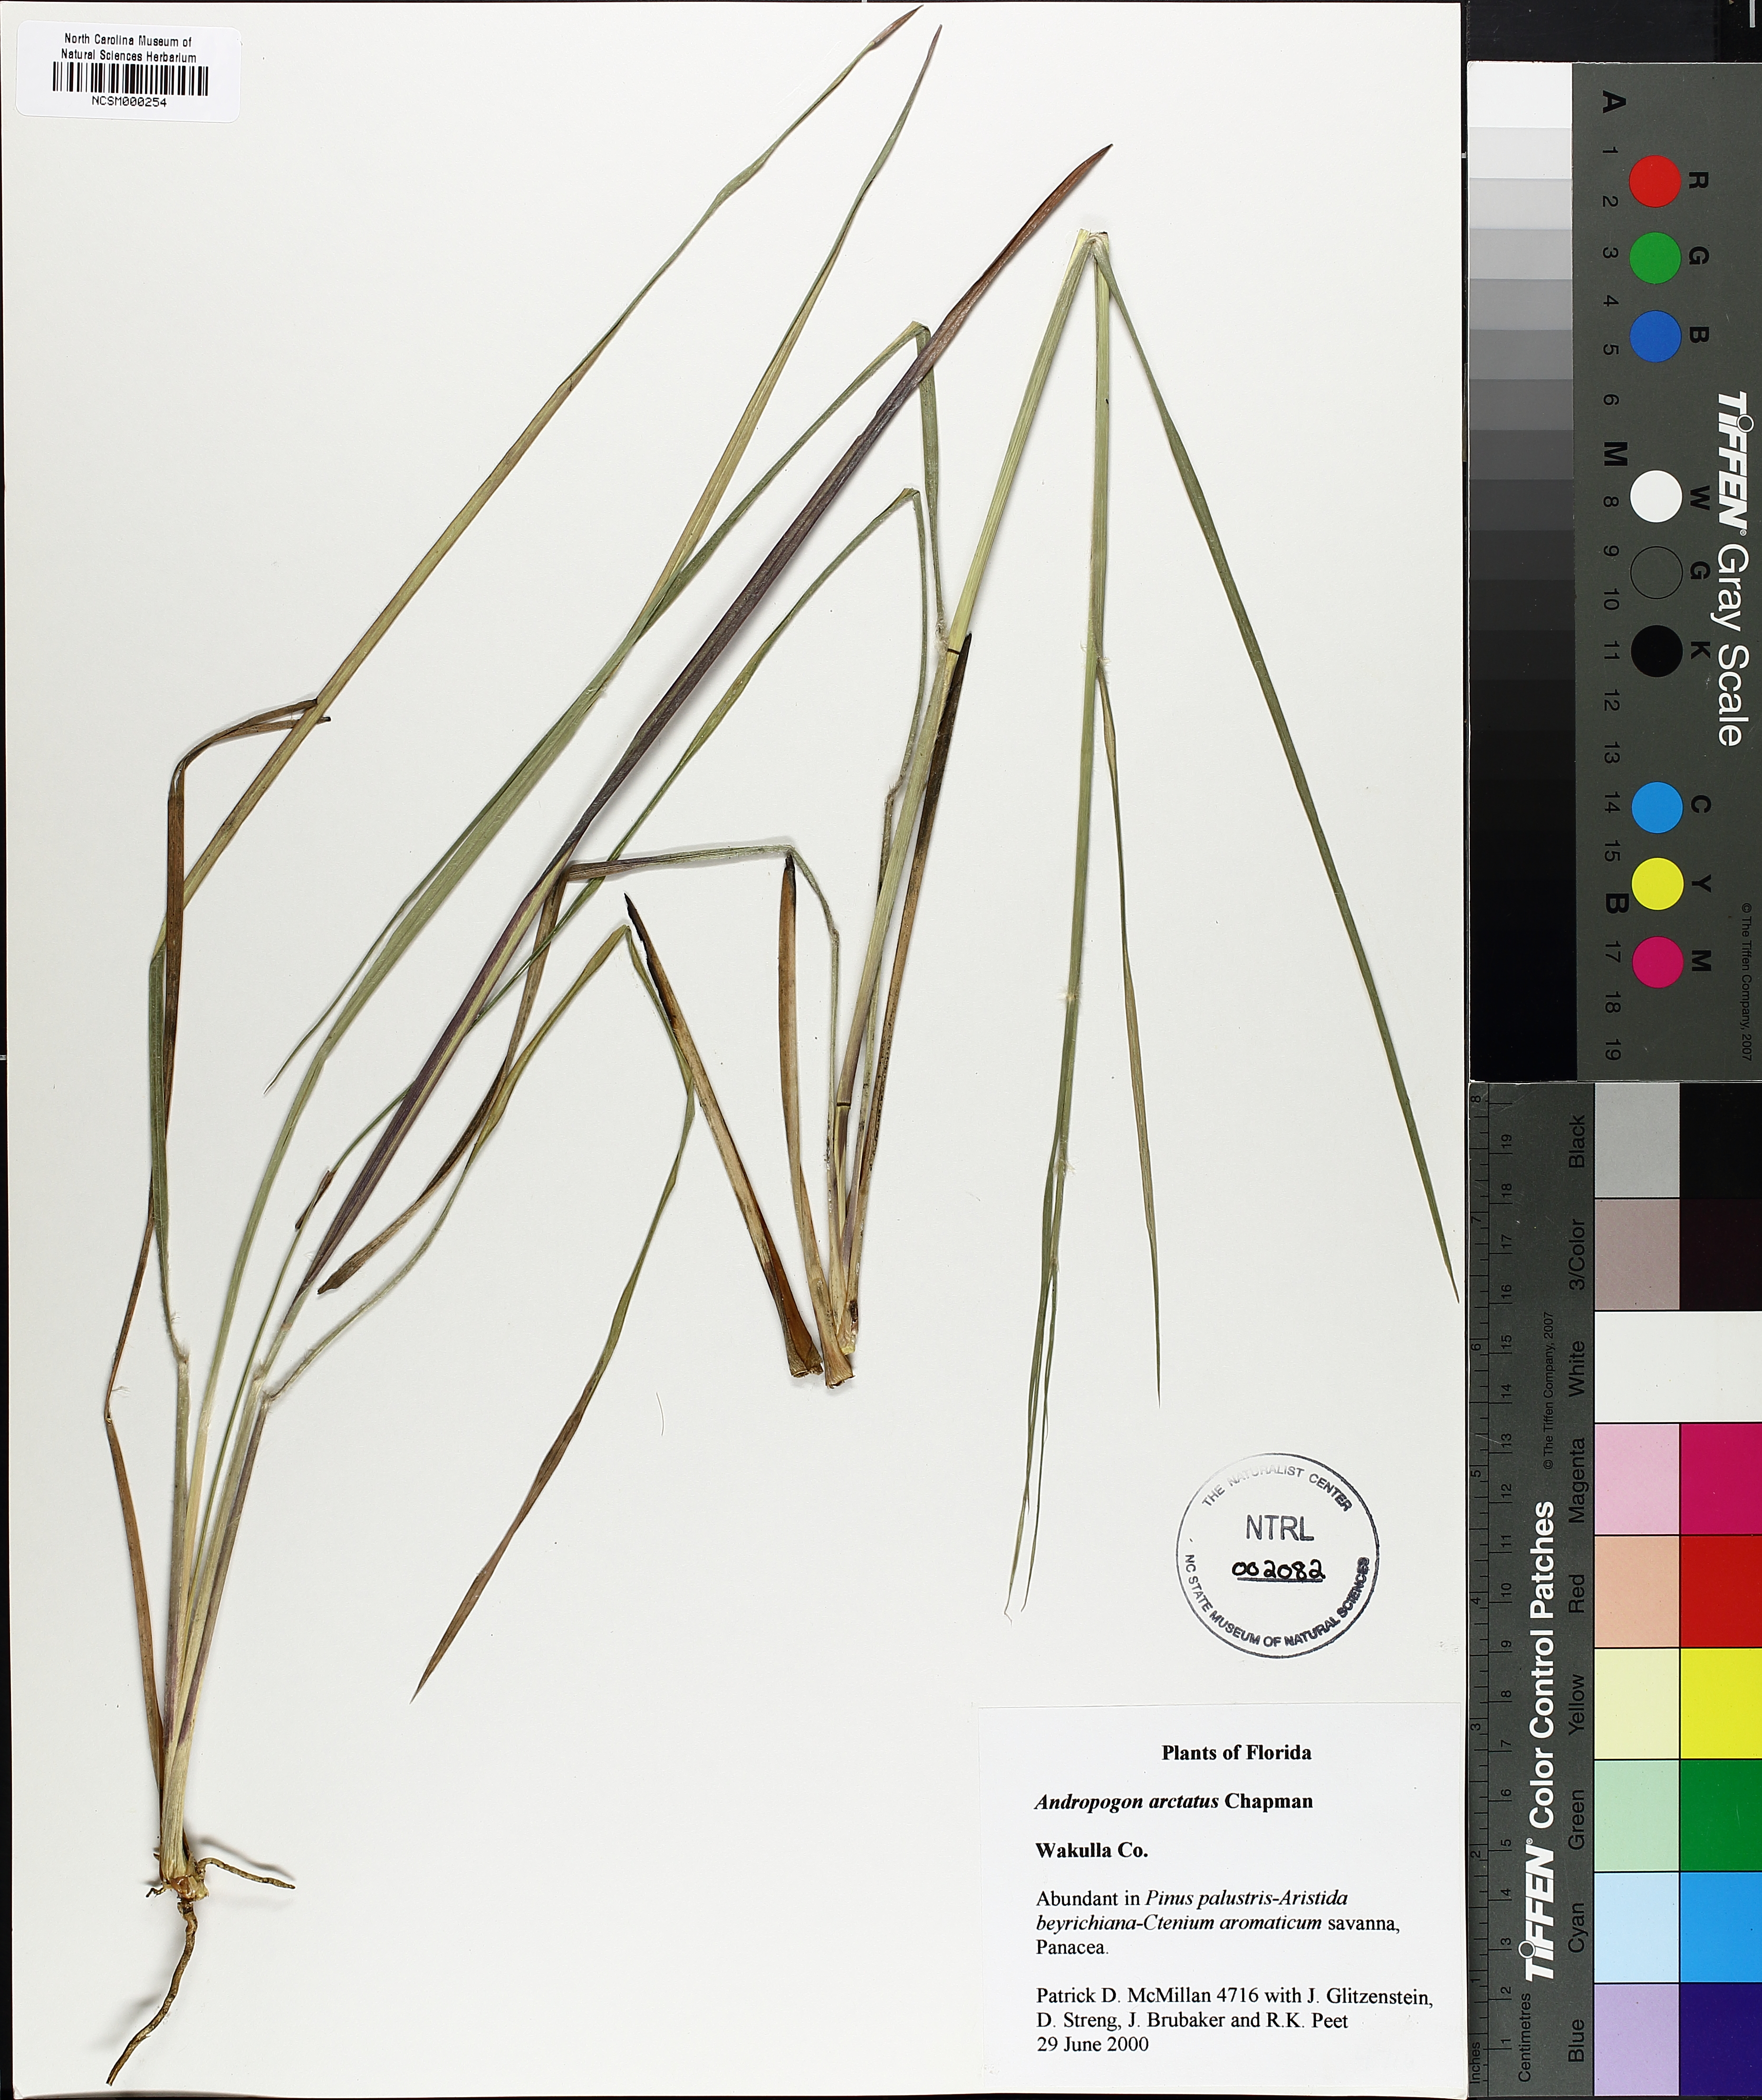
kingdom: Plantae
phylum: Tracheophyta
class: Liliopsida
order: Poales
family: Poaceae
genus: Andropogon
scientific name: Andropogon arctatus
